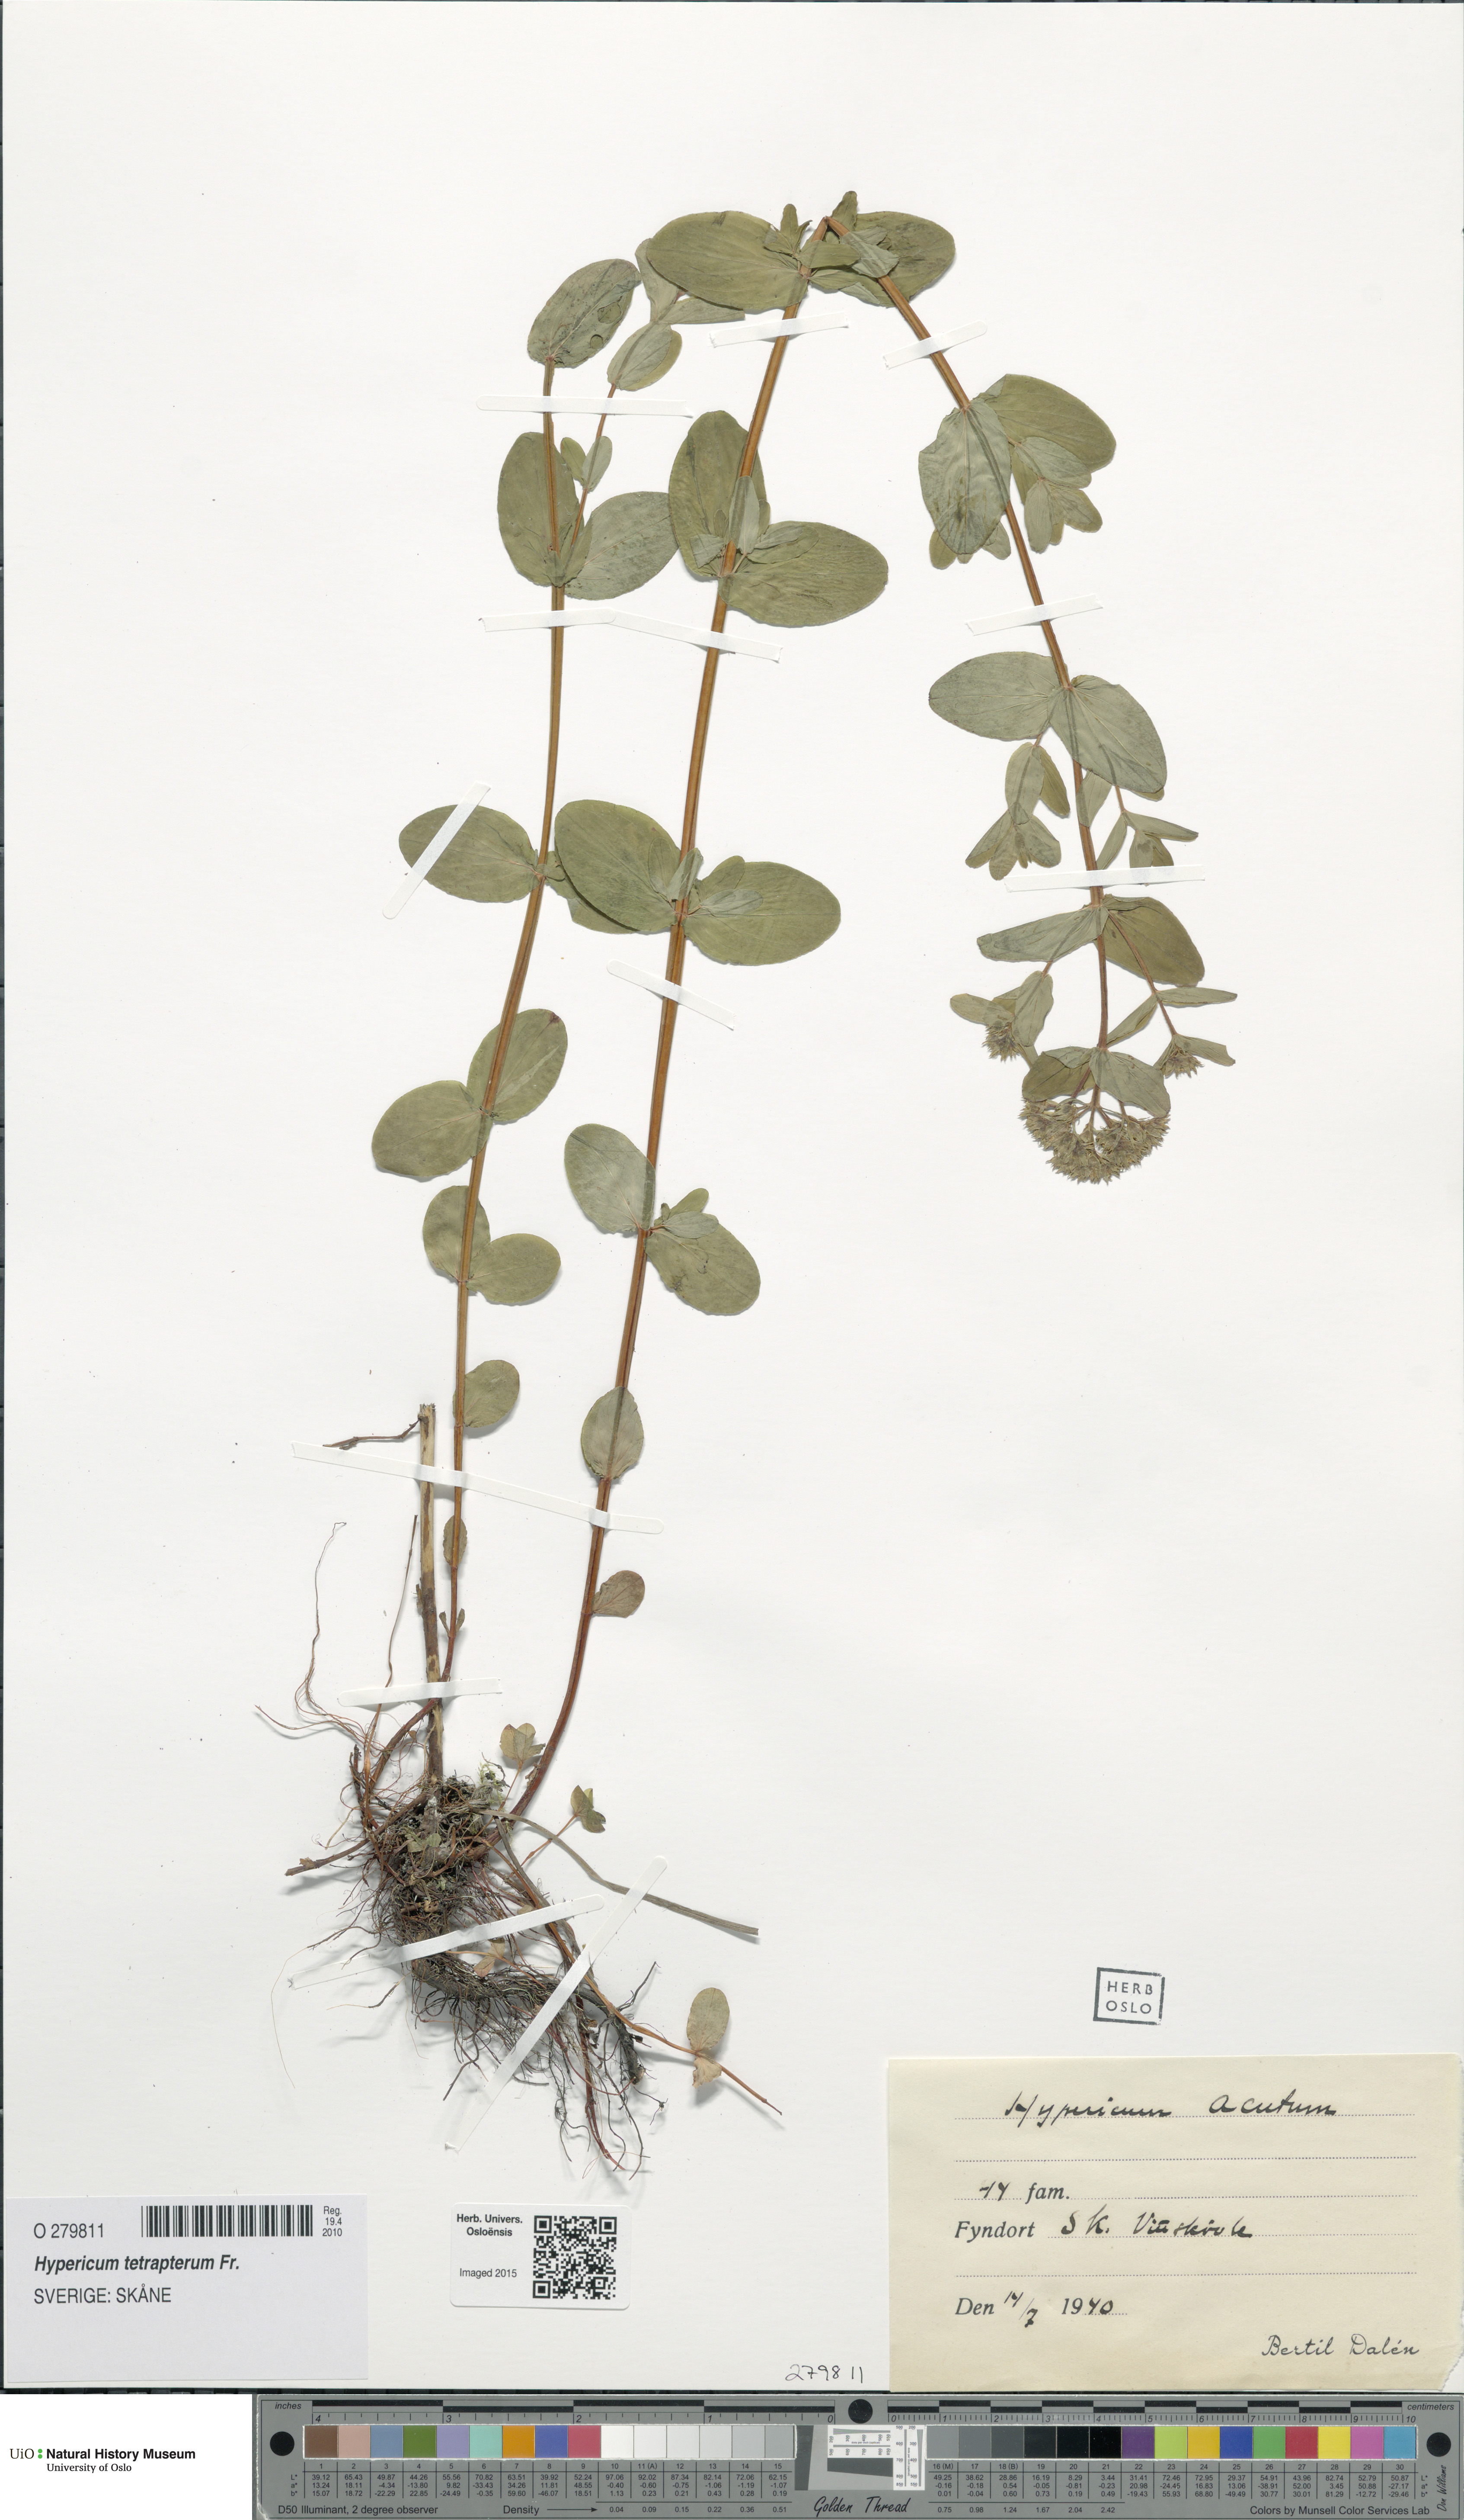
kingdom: Plantae
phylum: Tracheophyta
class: Magnoliopsida
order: Malpighiales
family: Hypericaceae
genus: Hypericum
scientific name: Hypericum tetrapterum
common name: Square-stalked st. john's-wort
